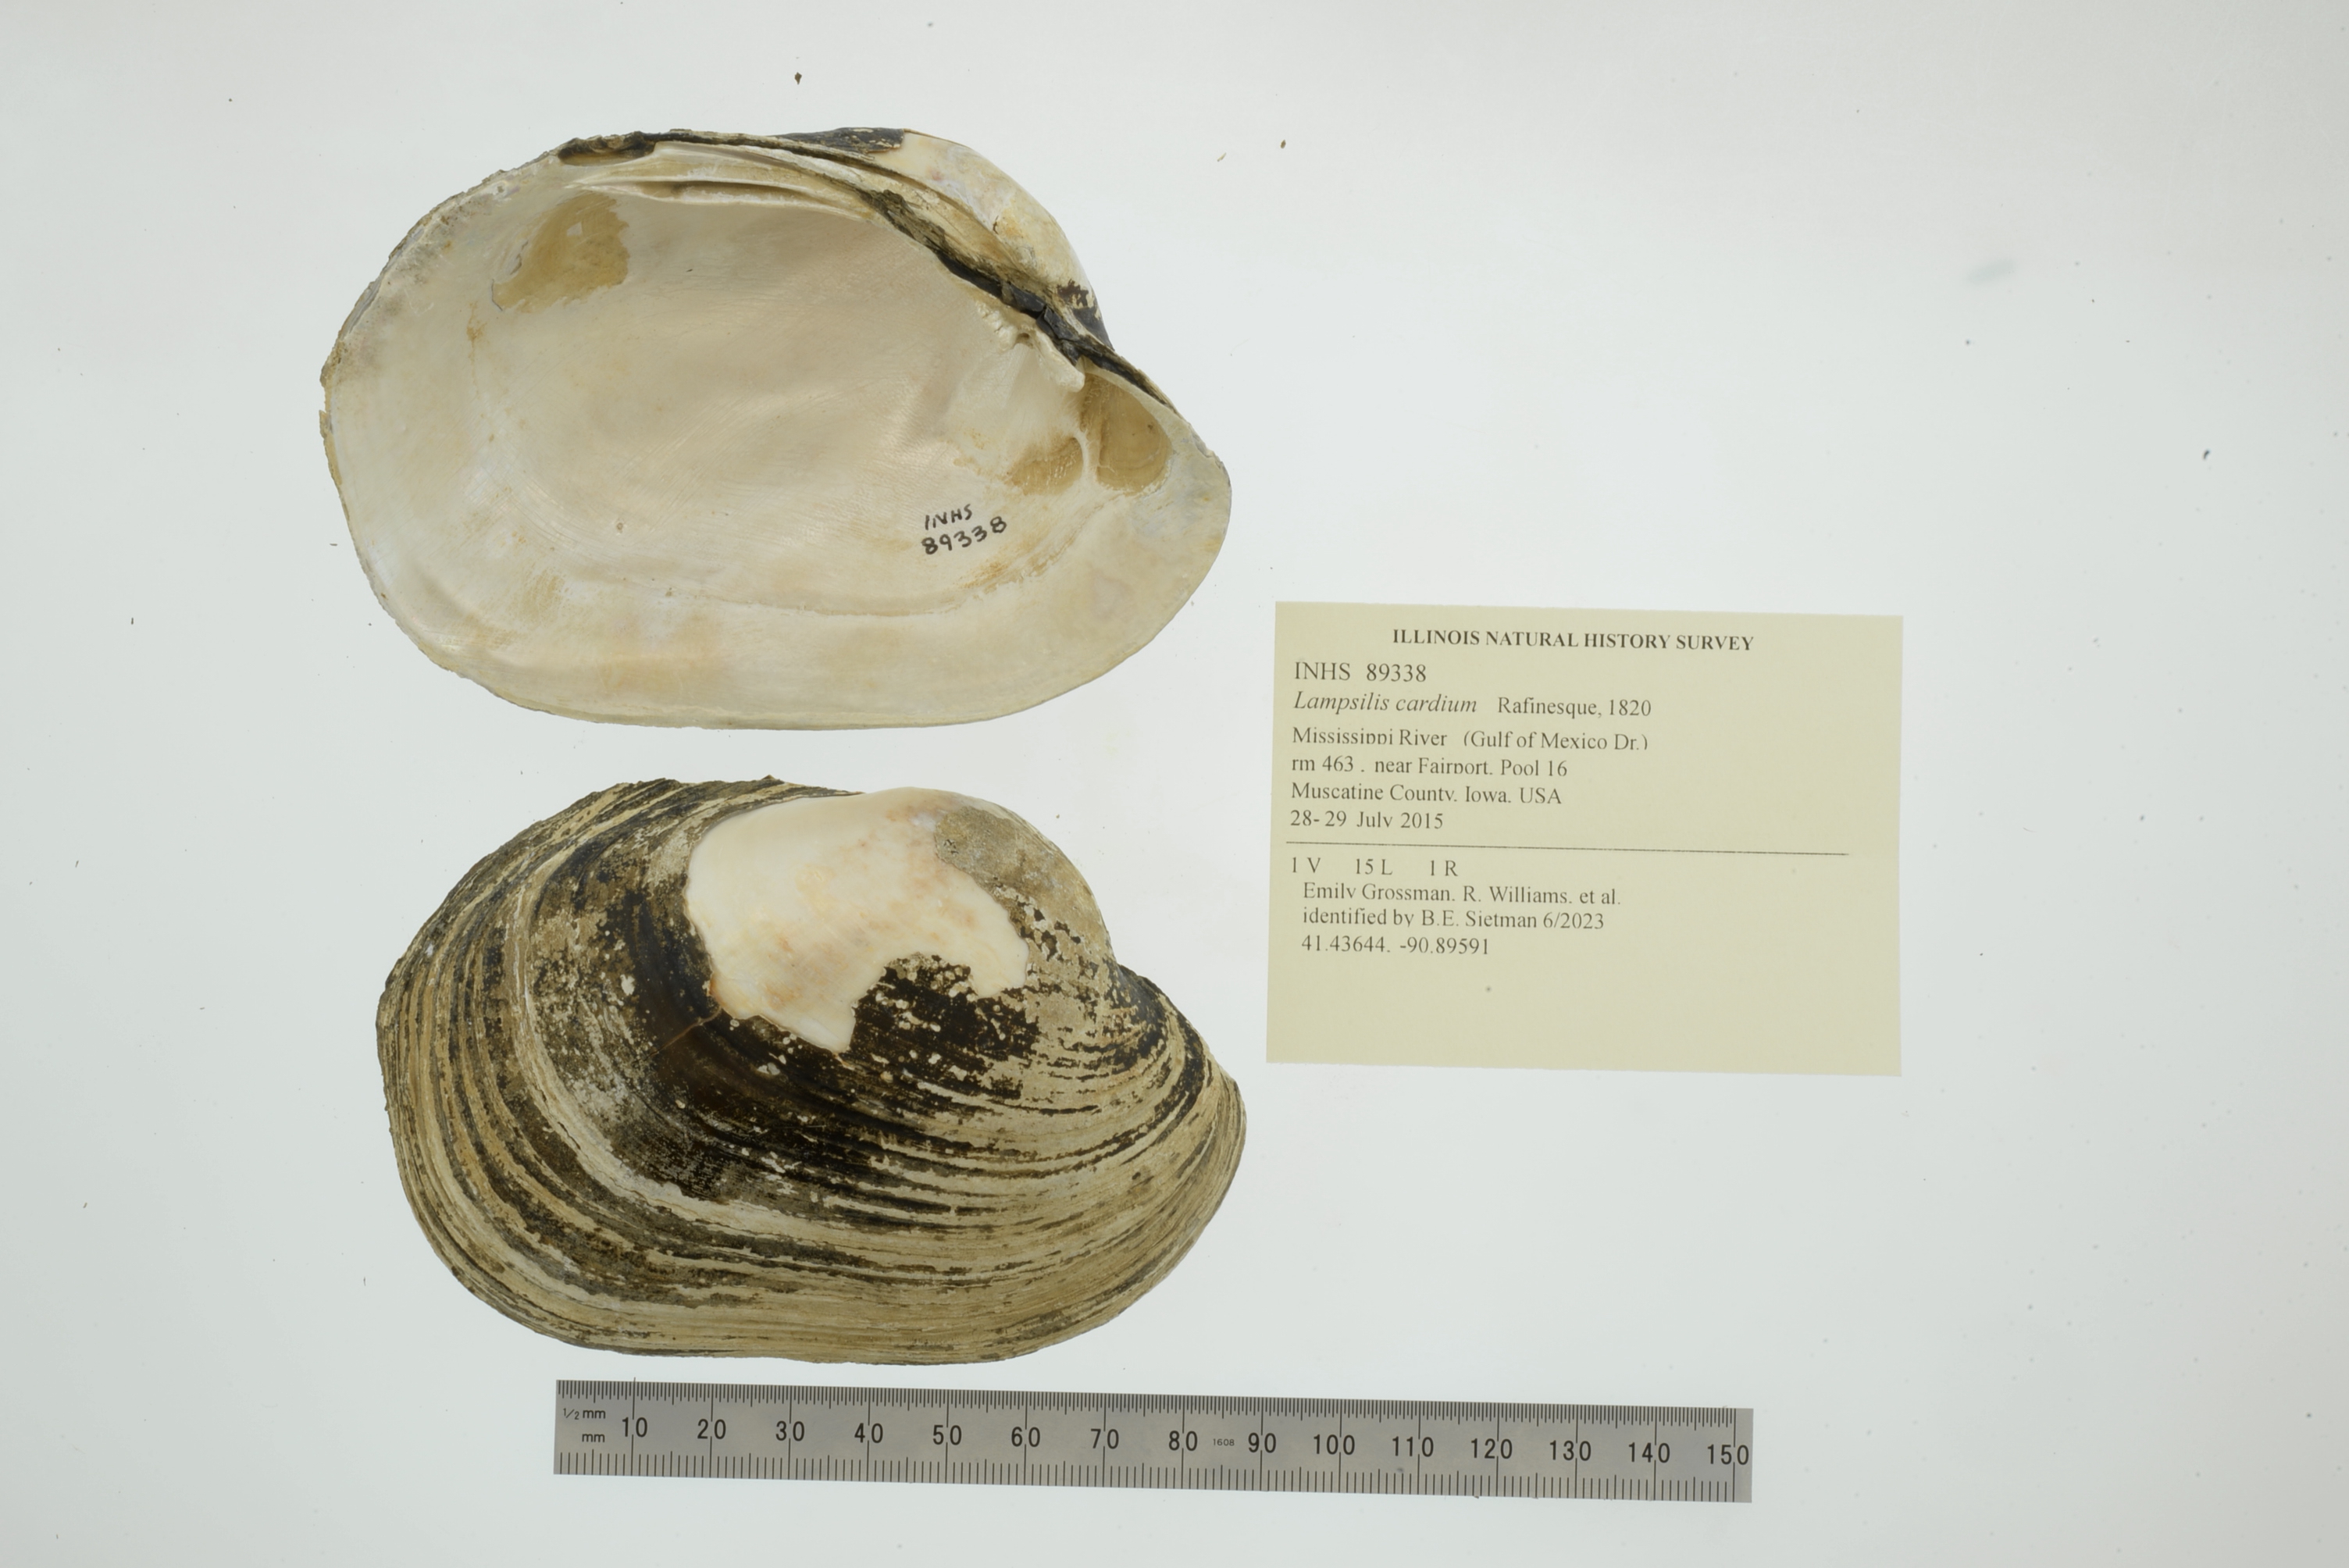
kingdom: Animalia
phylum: Mollusca
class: Bivalvia
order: Unionida
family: Unionidae
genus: Lampsilis
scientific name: Lampsilis cardium
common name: Plain pocketbook
